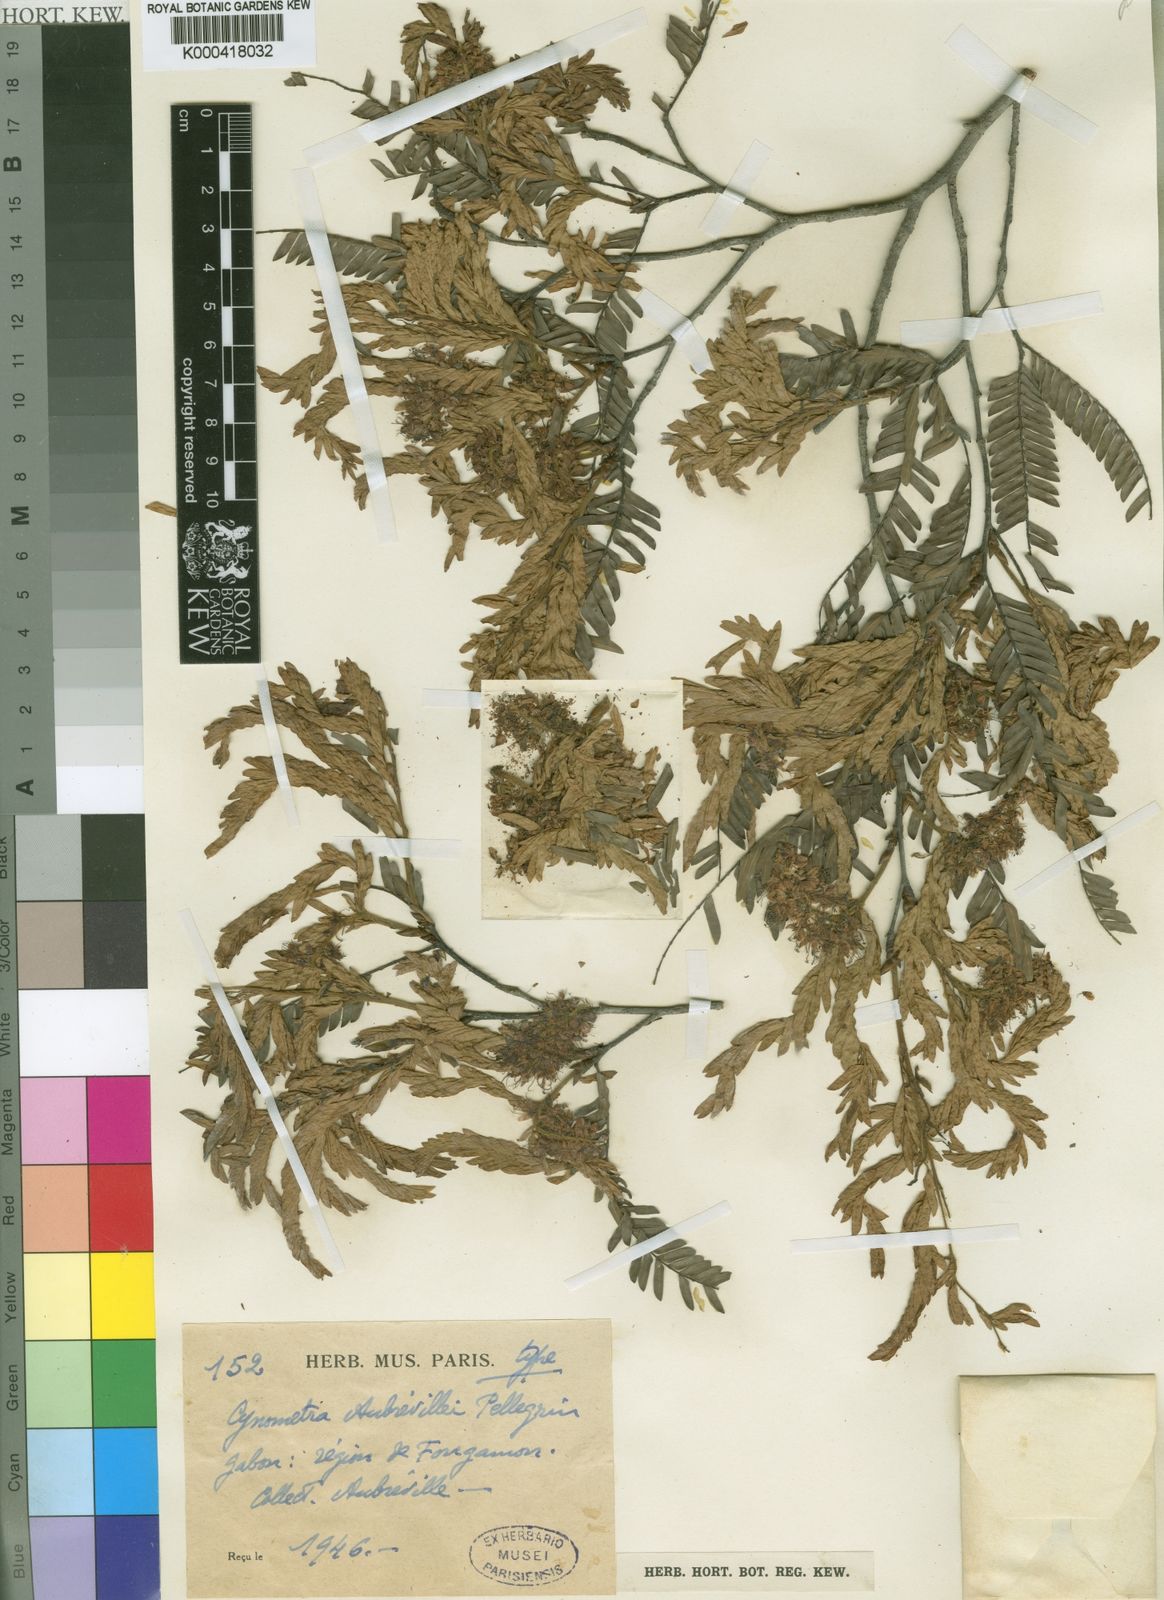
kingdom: Plantae
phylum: Tracheophyta
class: Magnoliopsida
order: Fabales
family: Fabaceae
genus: Hymenostegia
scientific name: Hymenostegia
